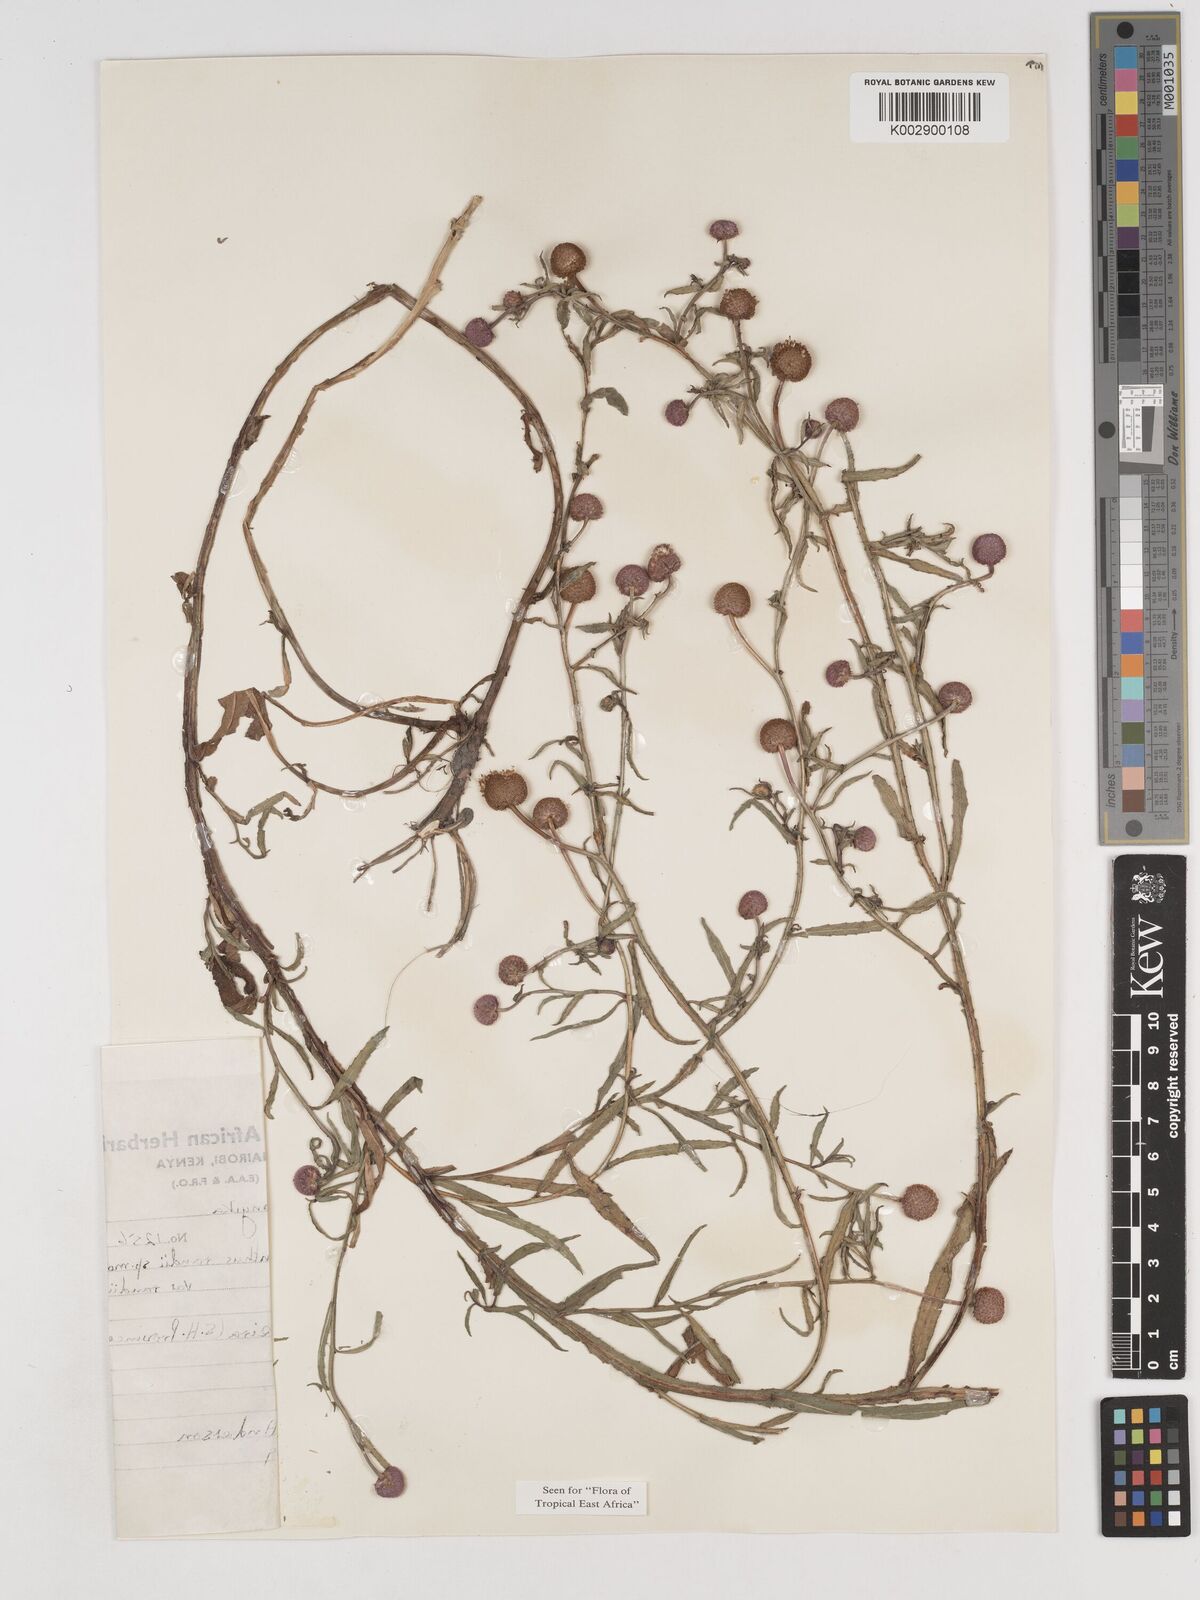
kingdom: Plantae
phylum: Tracheophyta
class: Magnoliopsida
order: Asterales
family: Asteraceae
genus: Sphaeranthus
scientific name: Sphaeranthus randii
